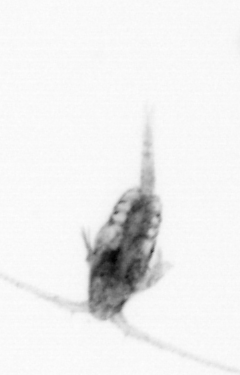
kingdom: Animalia
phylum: Arthropoda
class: Copepoda
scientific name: Copepoda
